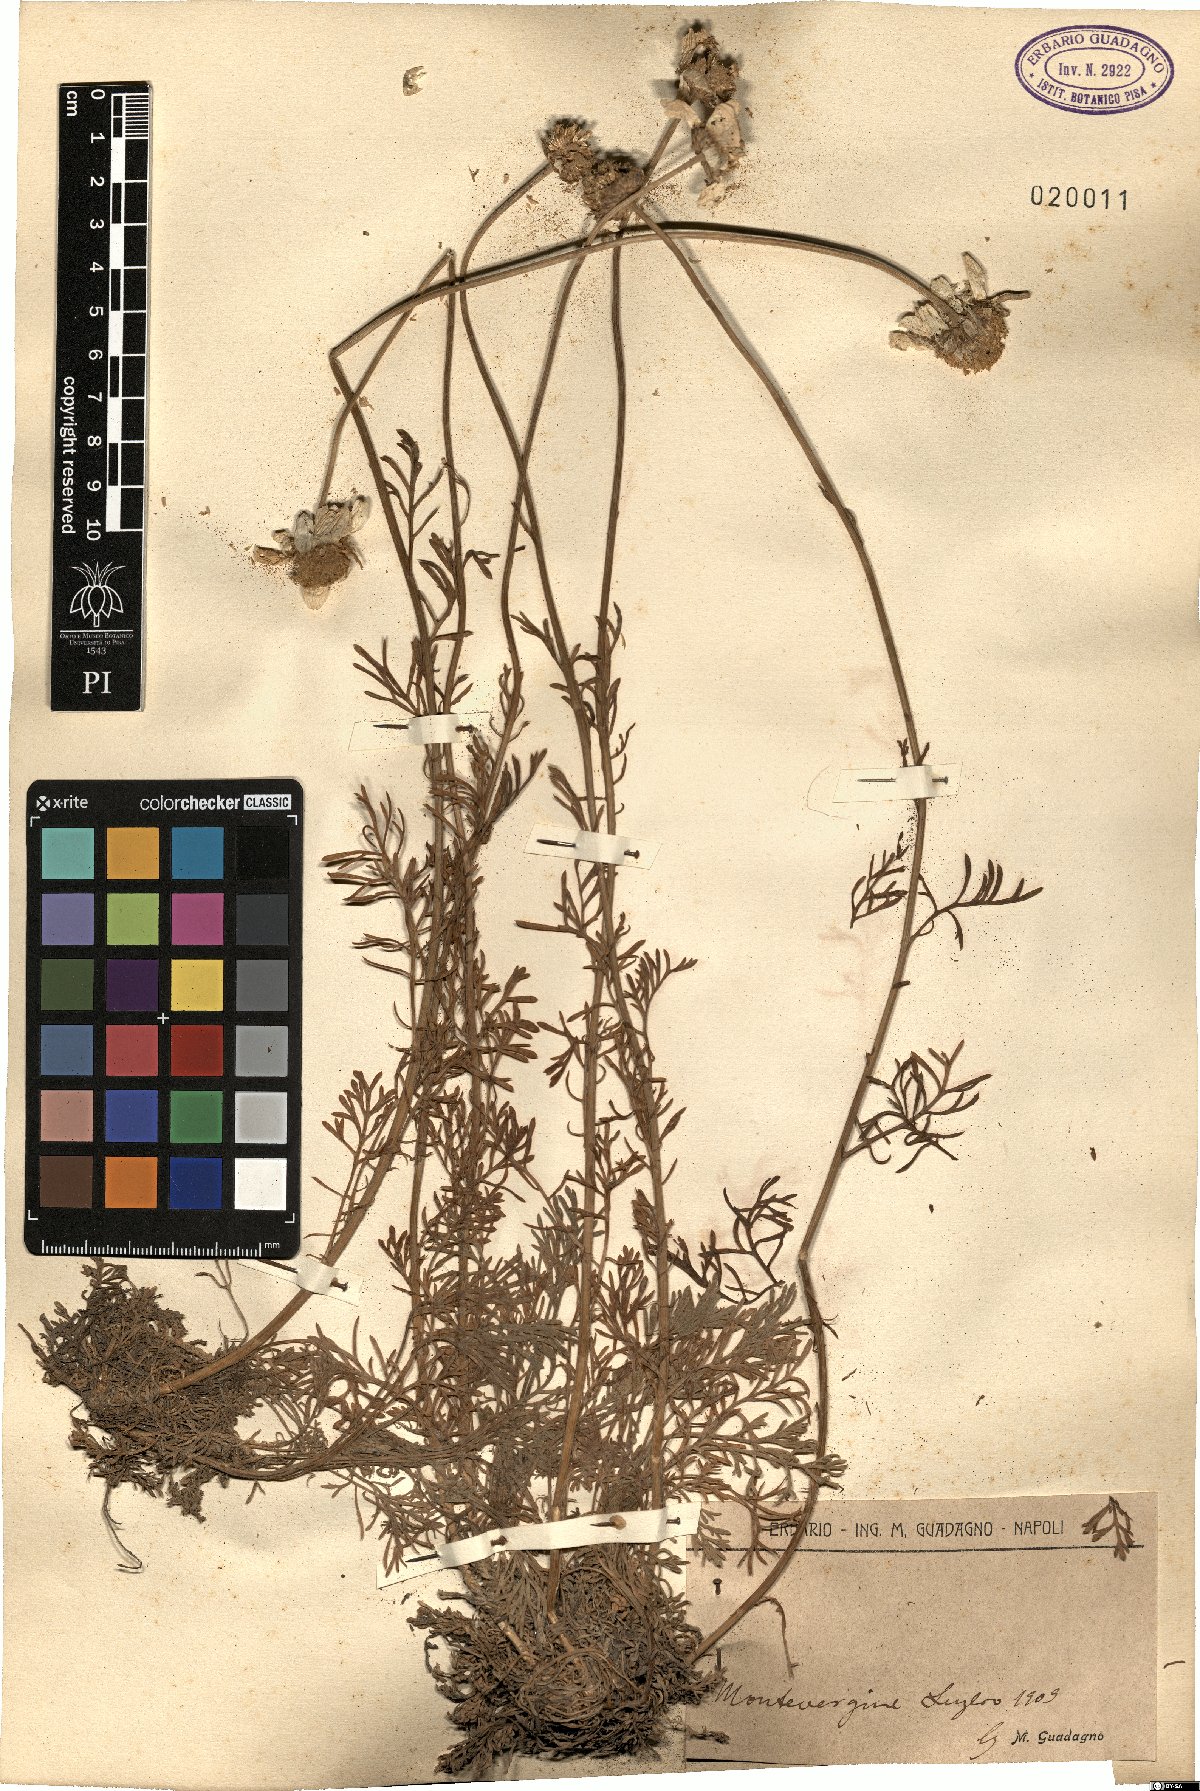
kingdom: Plantae
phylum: Tracheophyta
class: Magnoliopsida
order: Asterales
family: Asteraceae
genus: Anthemis
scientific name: Anthemis
